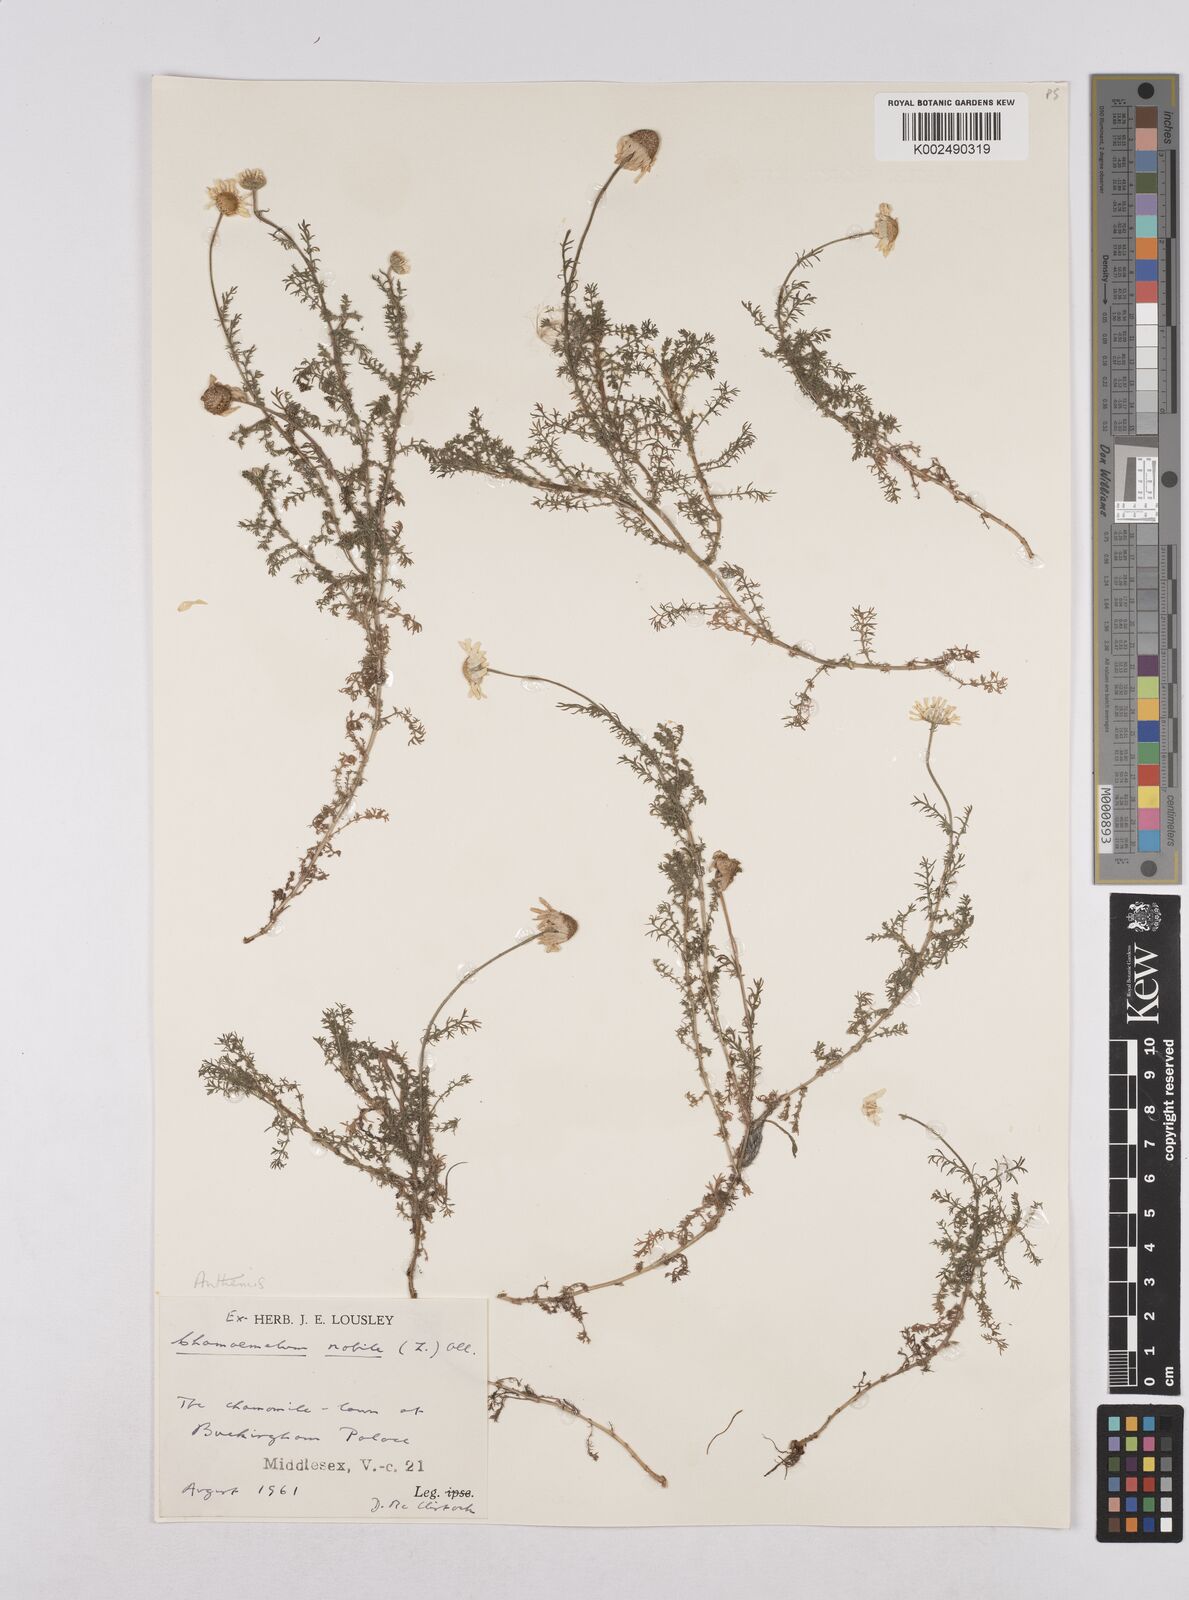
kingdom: Plantae
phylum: Tracheophyta
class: Magnoliopsida
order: Asterales
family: Asteraceae
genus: Chamaemelum
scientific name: Chamaemelum nobile
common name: Roman chamomile
